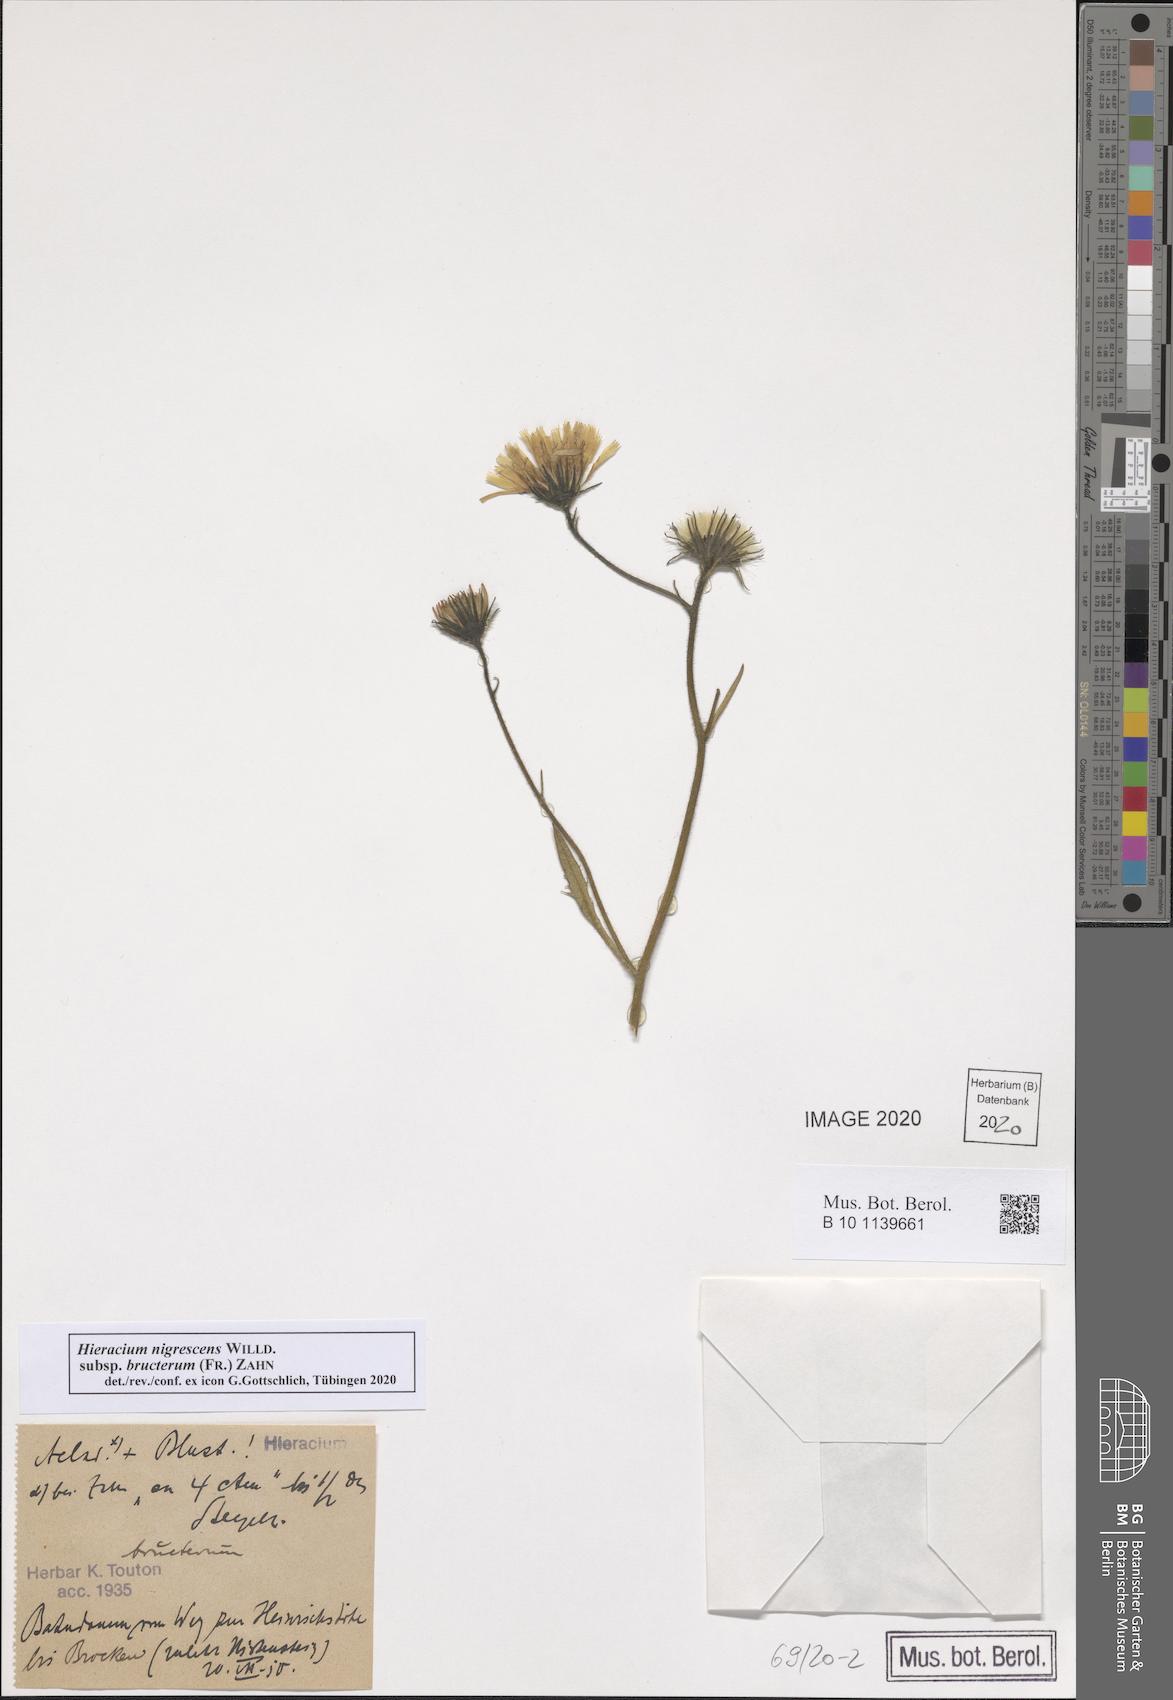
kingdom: Plantae
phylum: Tracheophyta
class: Magnoliopsida
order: Asterales
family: Asteraceae
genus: Hieracium
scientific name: Hieracium nigrescens
